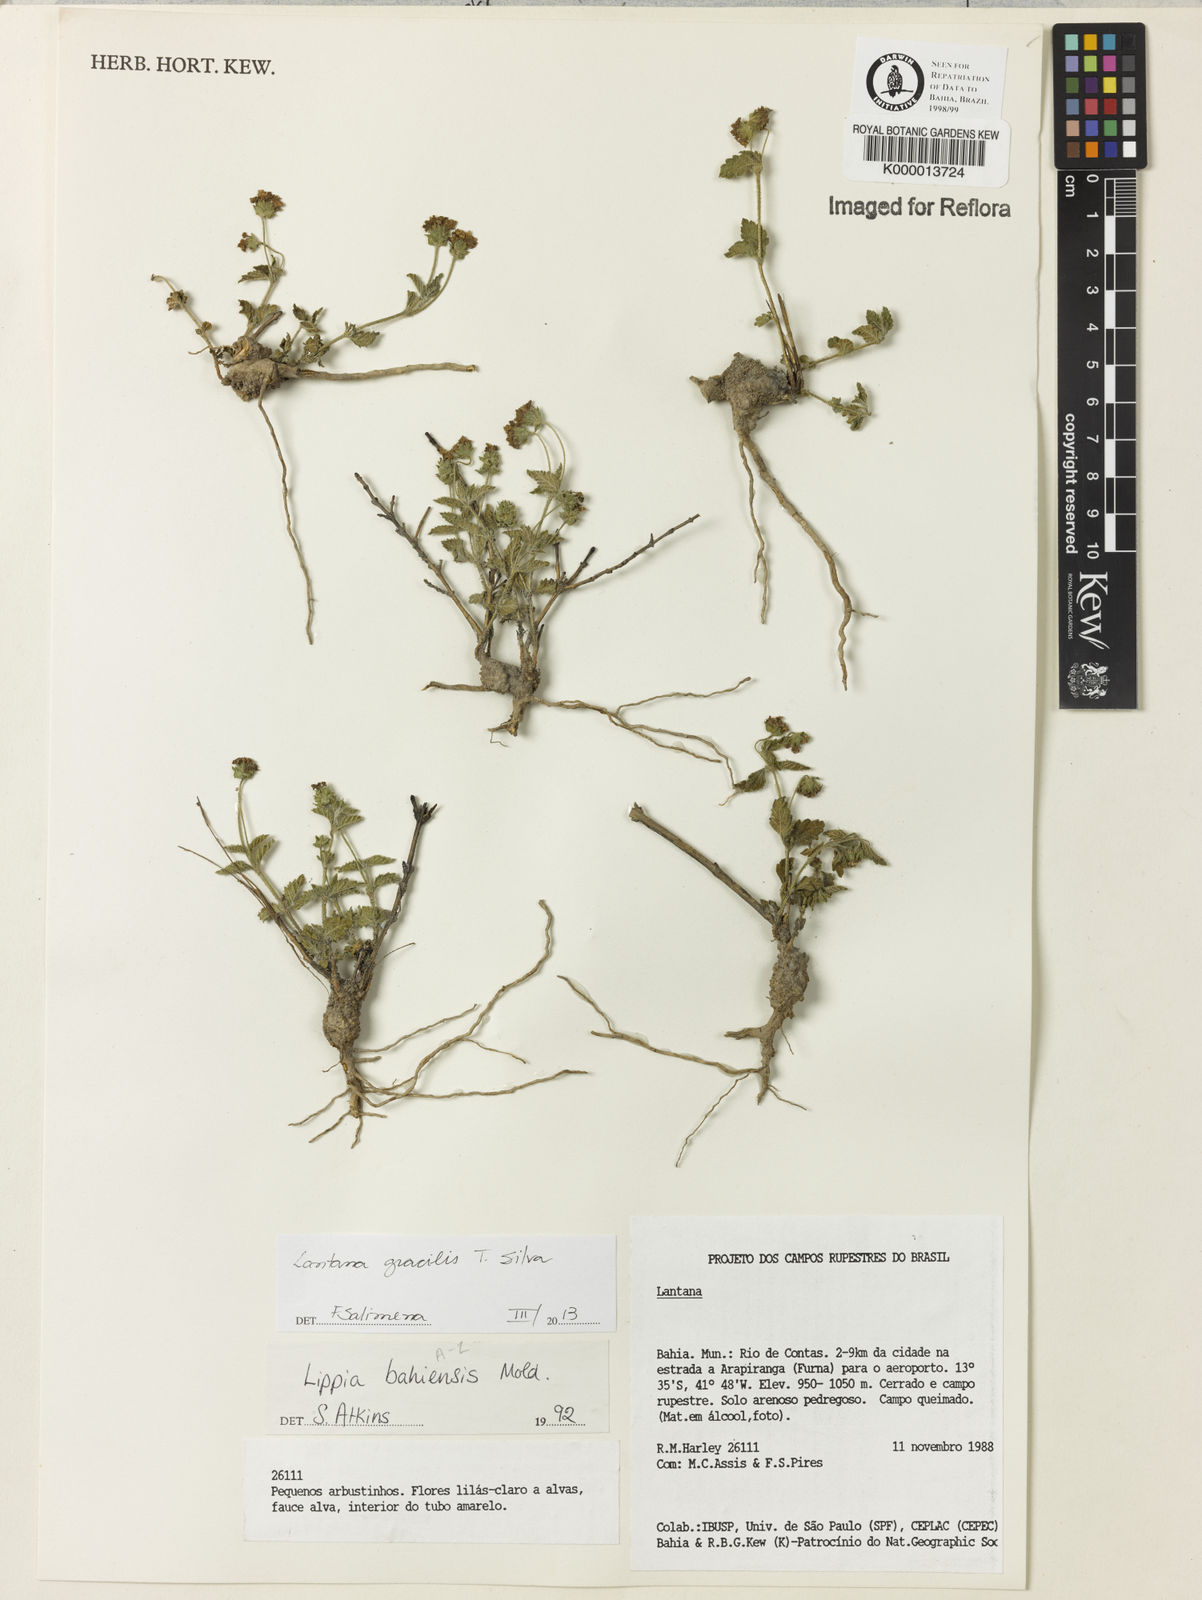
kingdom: Plantae
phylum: Tracheophyta
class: Magnoliopsida
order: Lamiales
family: Verbenaceae
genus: Lantana
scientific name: Lantana gracilis
